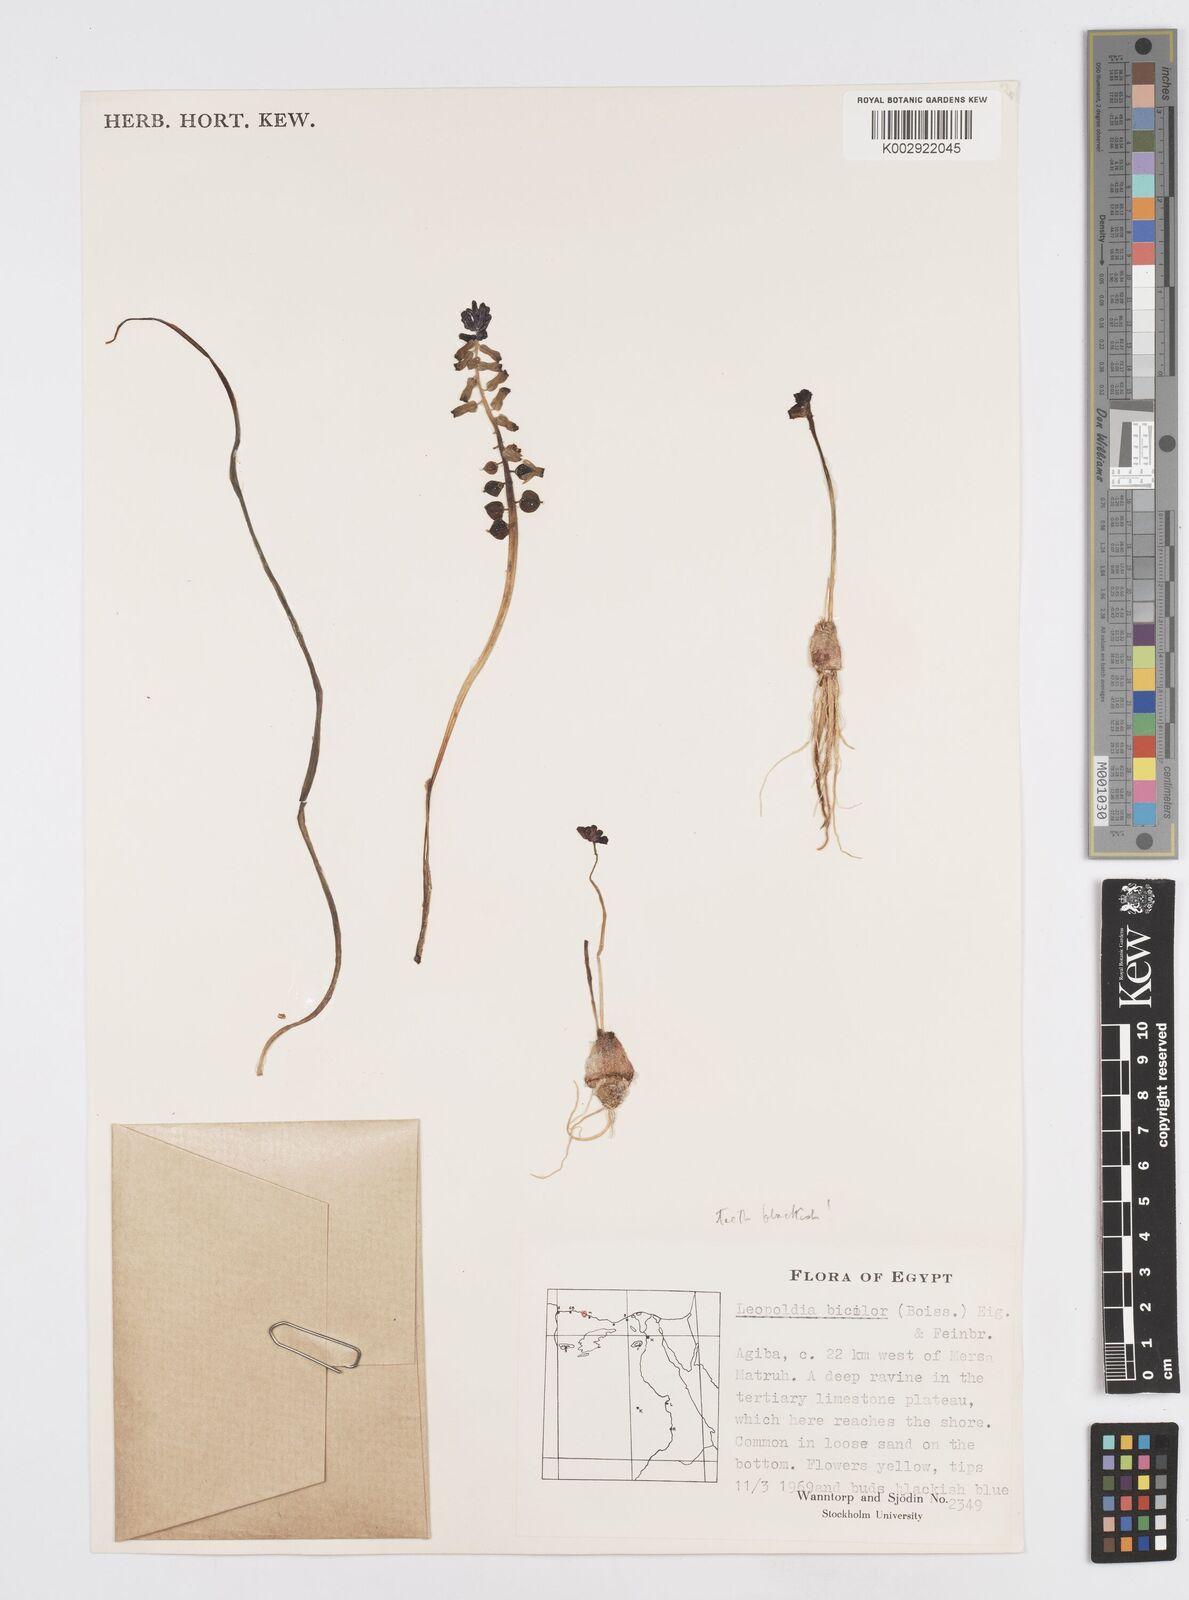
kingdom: Plantae
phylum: Tracheophyta
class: Liliopsida
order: Asparagales
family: Asparagaceae
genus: Muscari
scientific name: Muscari bicolor
